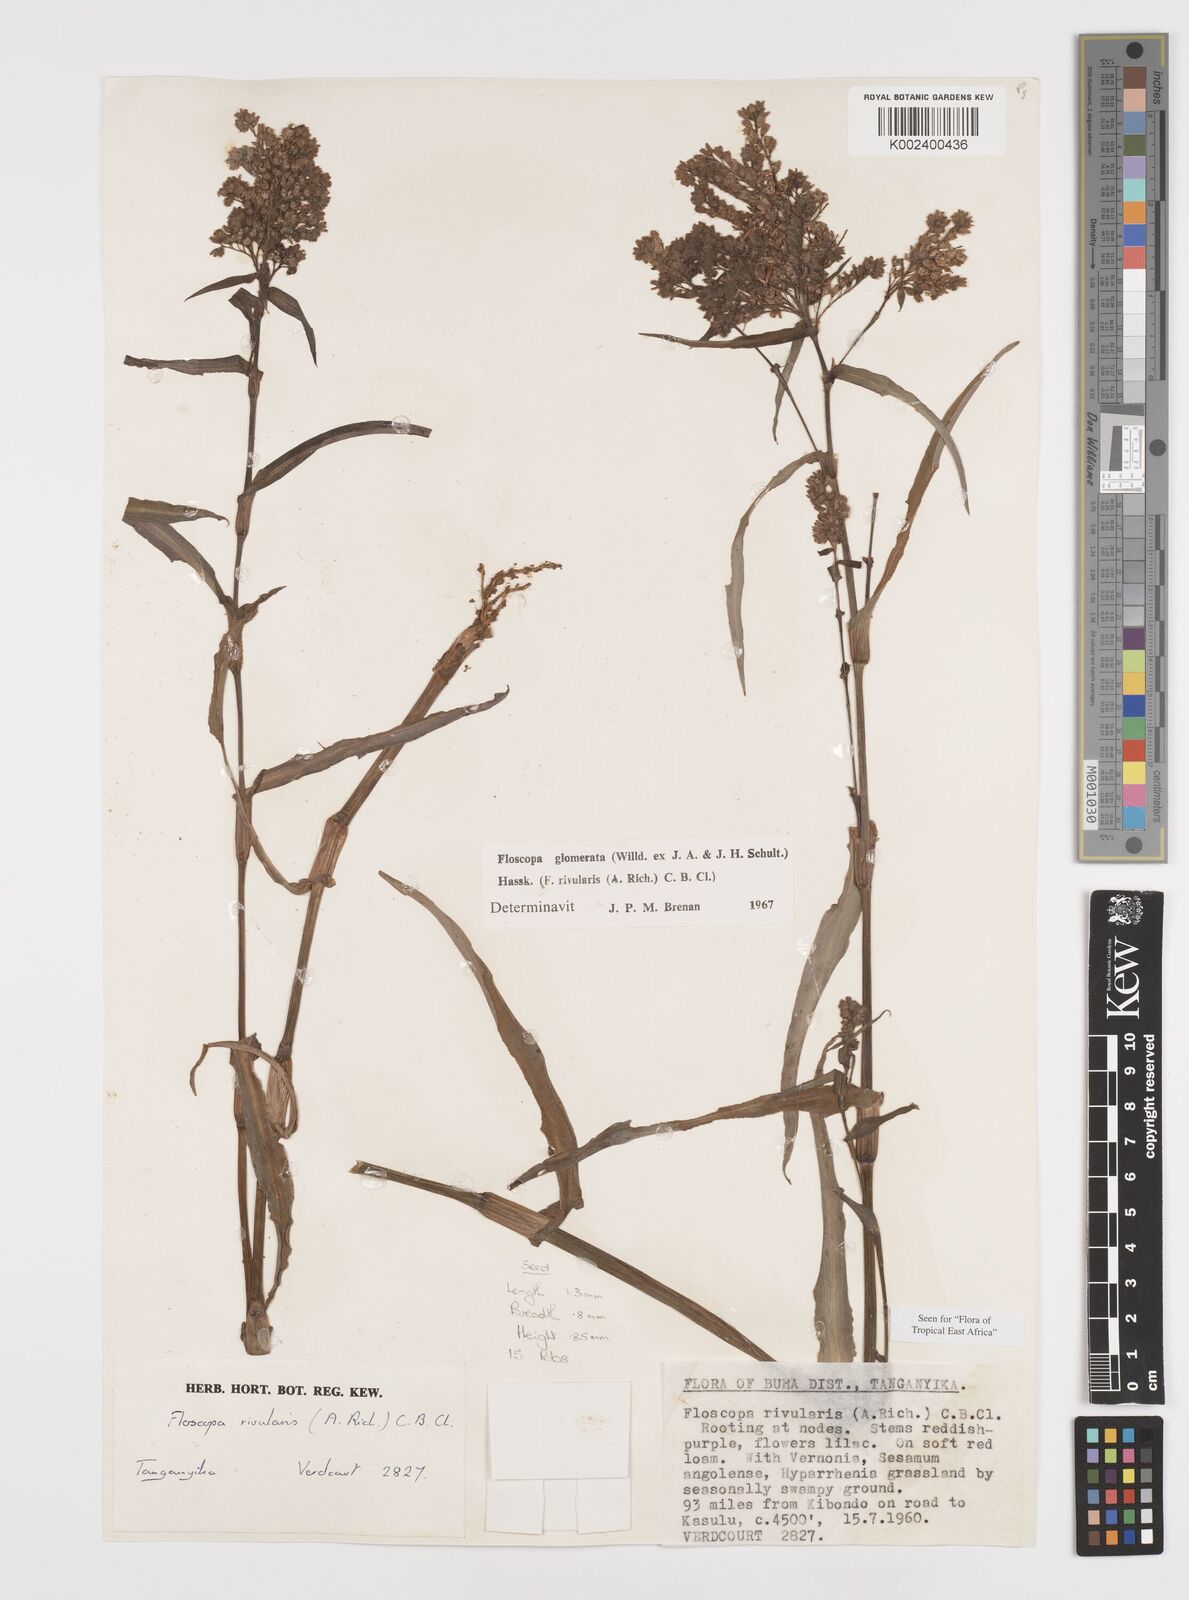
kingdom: Plantae
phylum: Tracheophyta
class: Liliopsida
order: Commelinales
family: Commelinaceae
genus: Floscopa
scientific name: Floscopa glomerata
